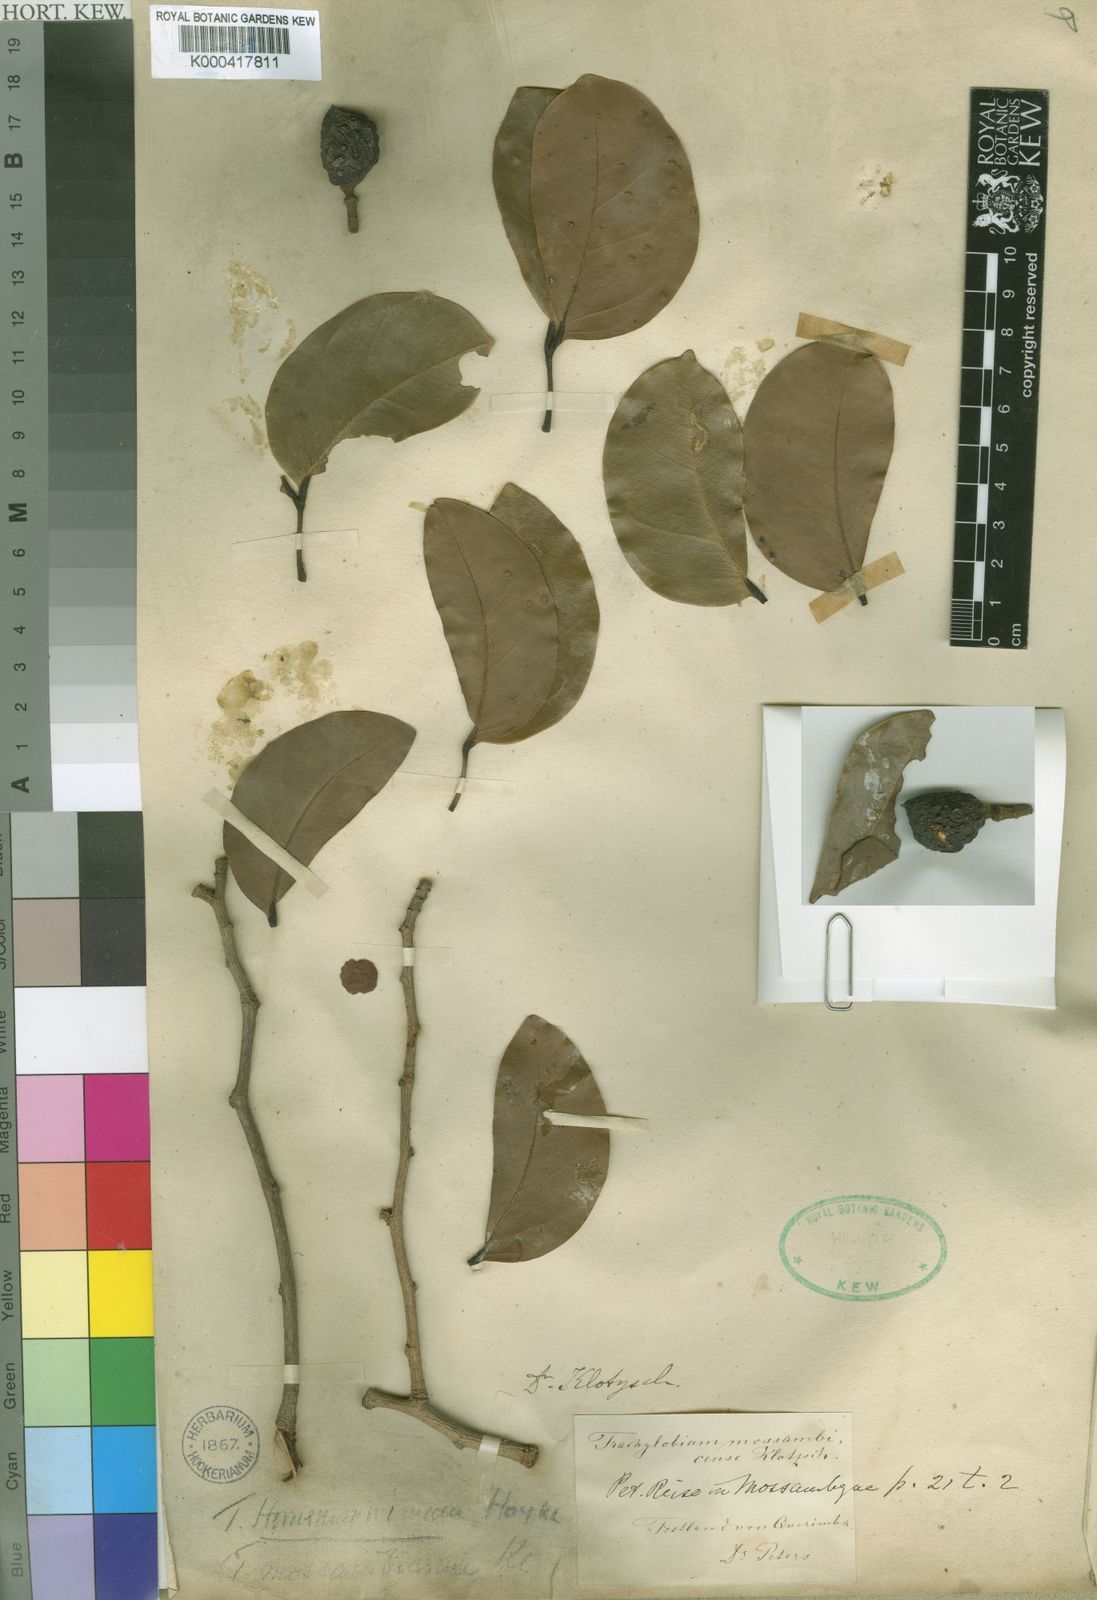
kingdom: Plantae
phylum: Tracheophyta
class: Magnoliopsida
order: Fabales
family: Fabaceae
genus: Hymenaea
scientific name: Hymenaea verrucosa
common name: East african copal
